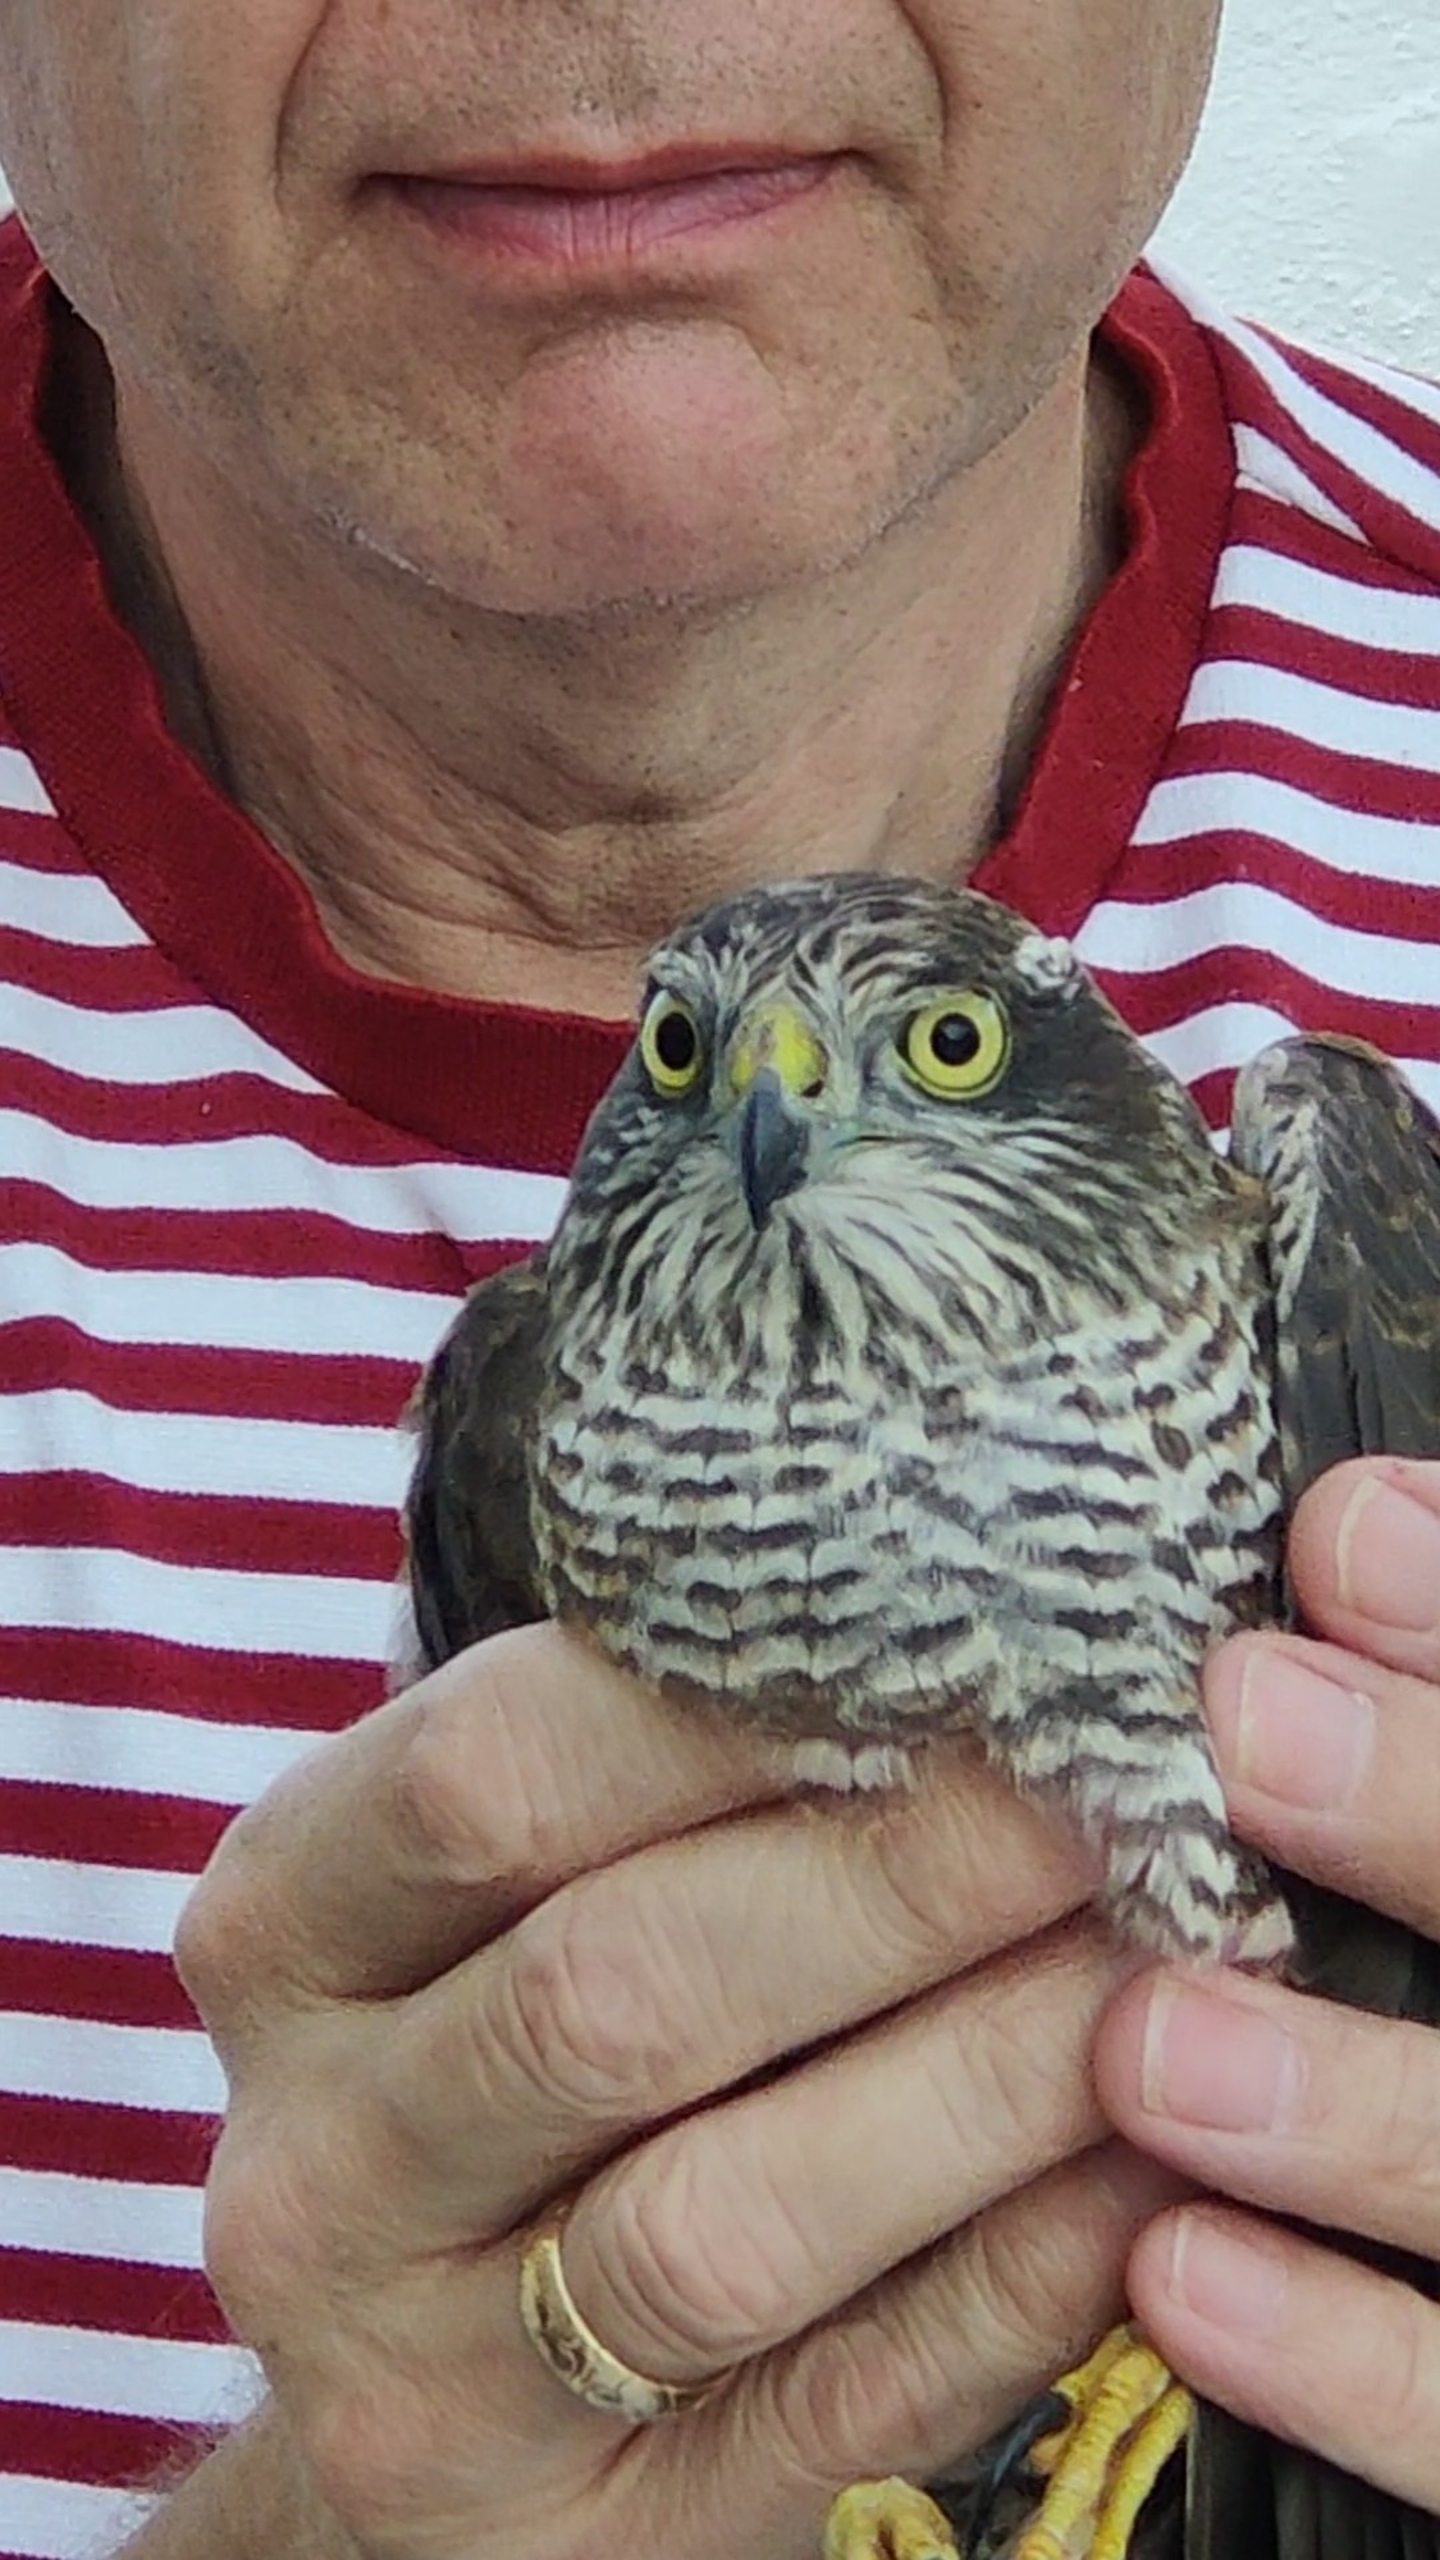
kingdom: Animalia
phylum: Chordata
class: Aves
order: Accipitriformes
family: Accipitridae
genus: Accipiter
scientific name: Accipiter nisus
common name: Spurvehøg
